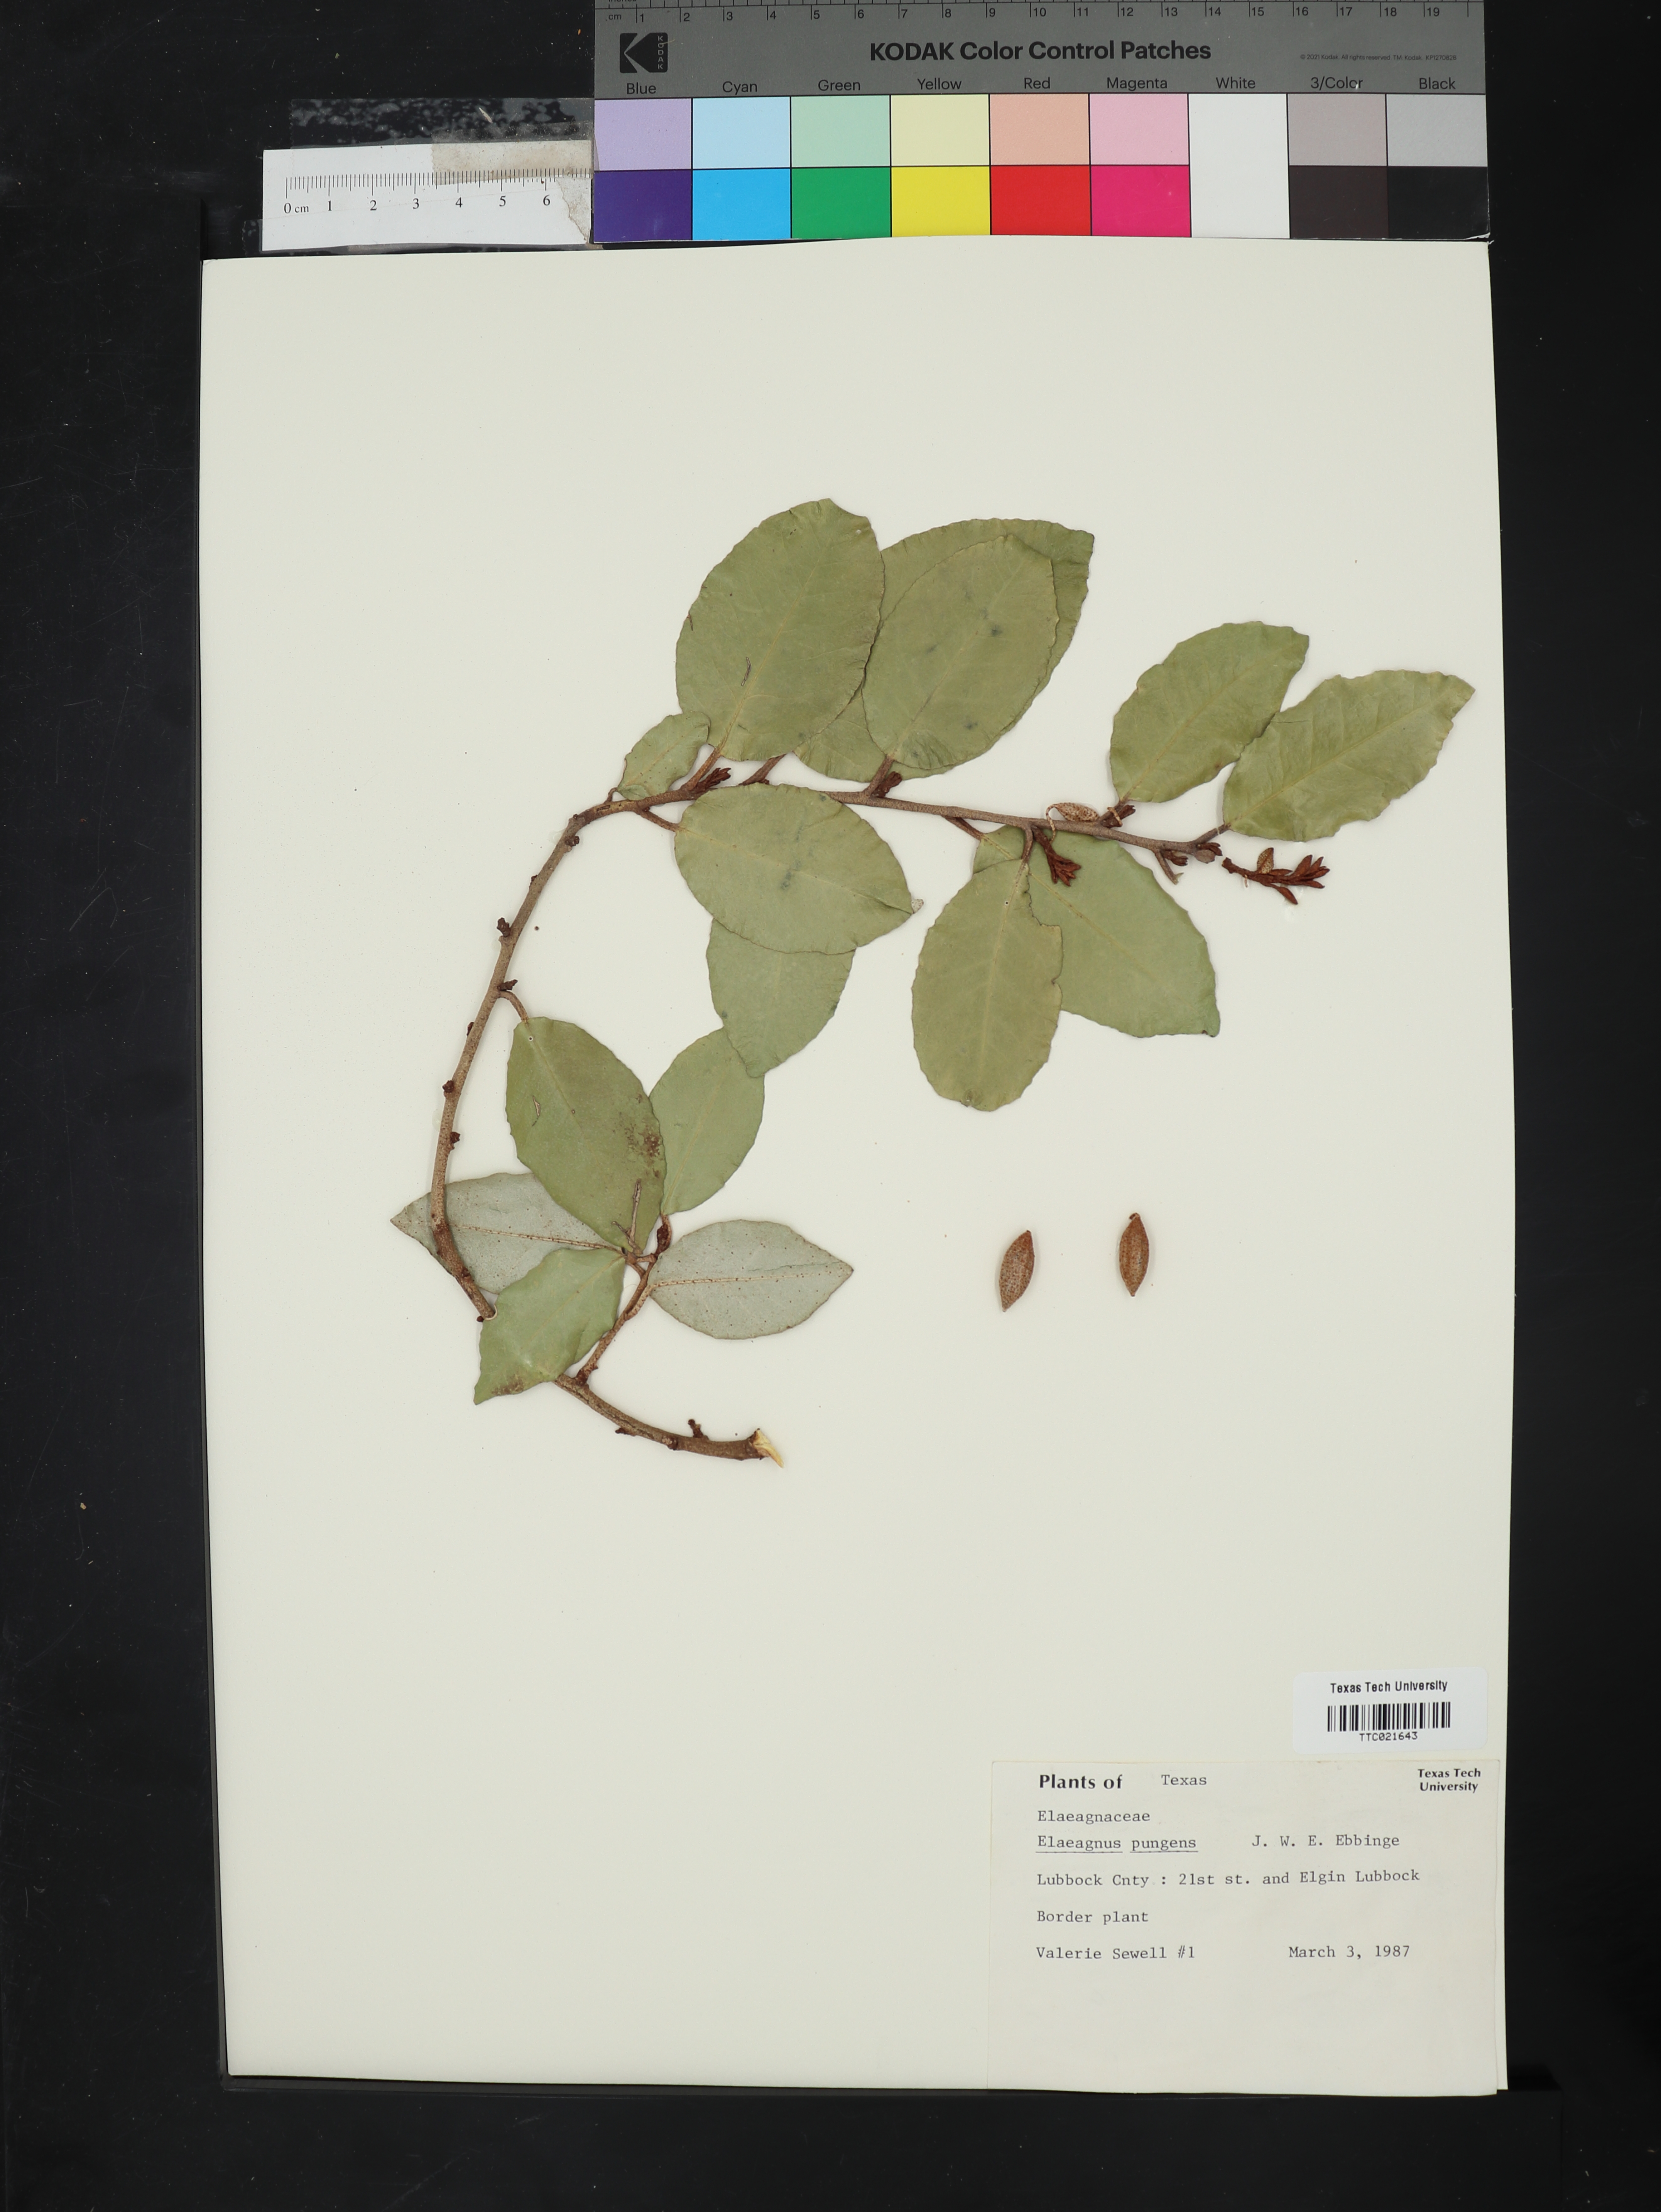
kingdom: Plantae
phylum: Tracheophyta
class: Magnoliopsida
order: Rosales
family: Elaeagnaceae
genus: Elaeagnus
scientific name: Elaeagnus pungens
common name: Spiny oleaster
